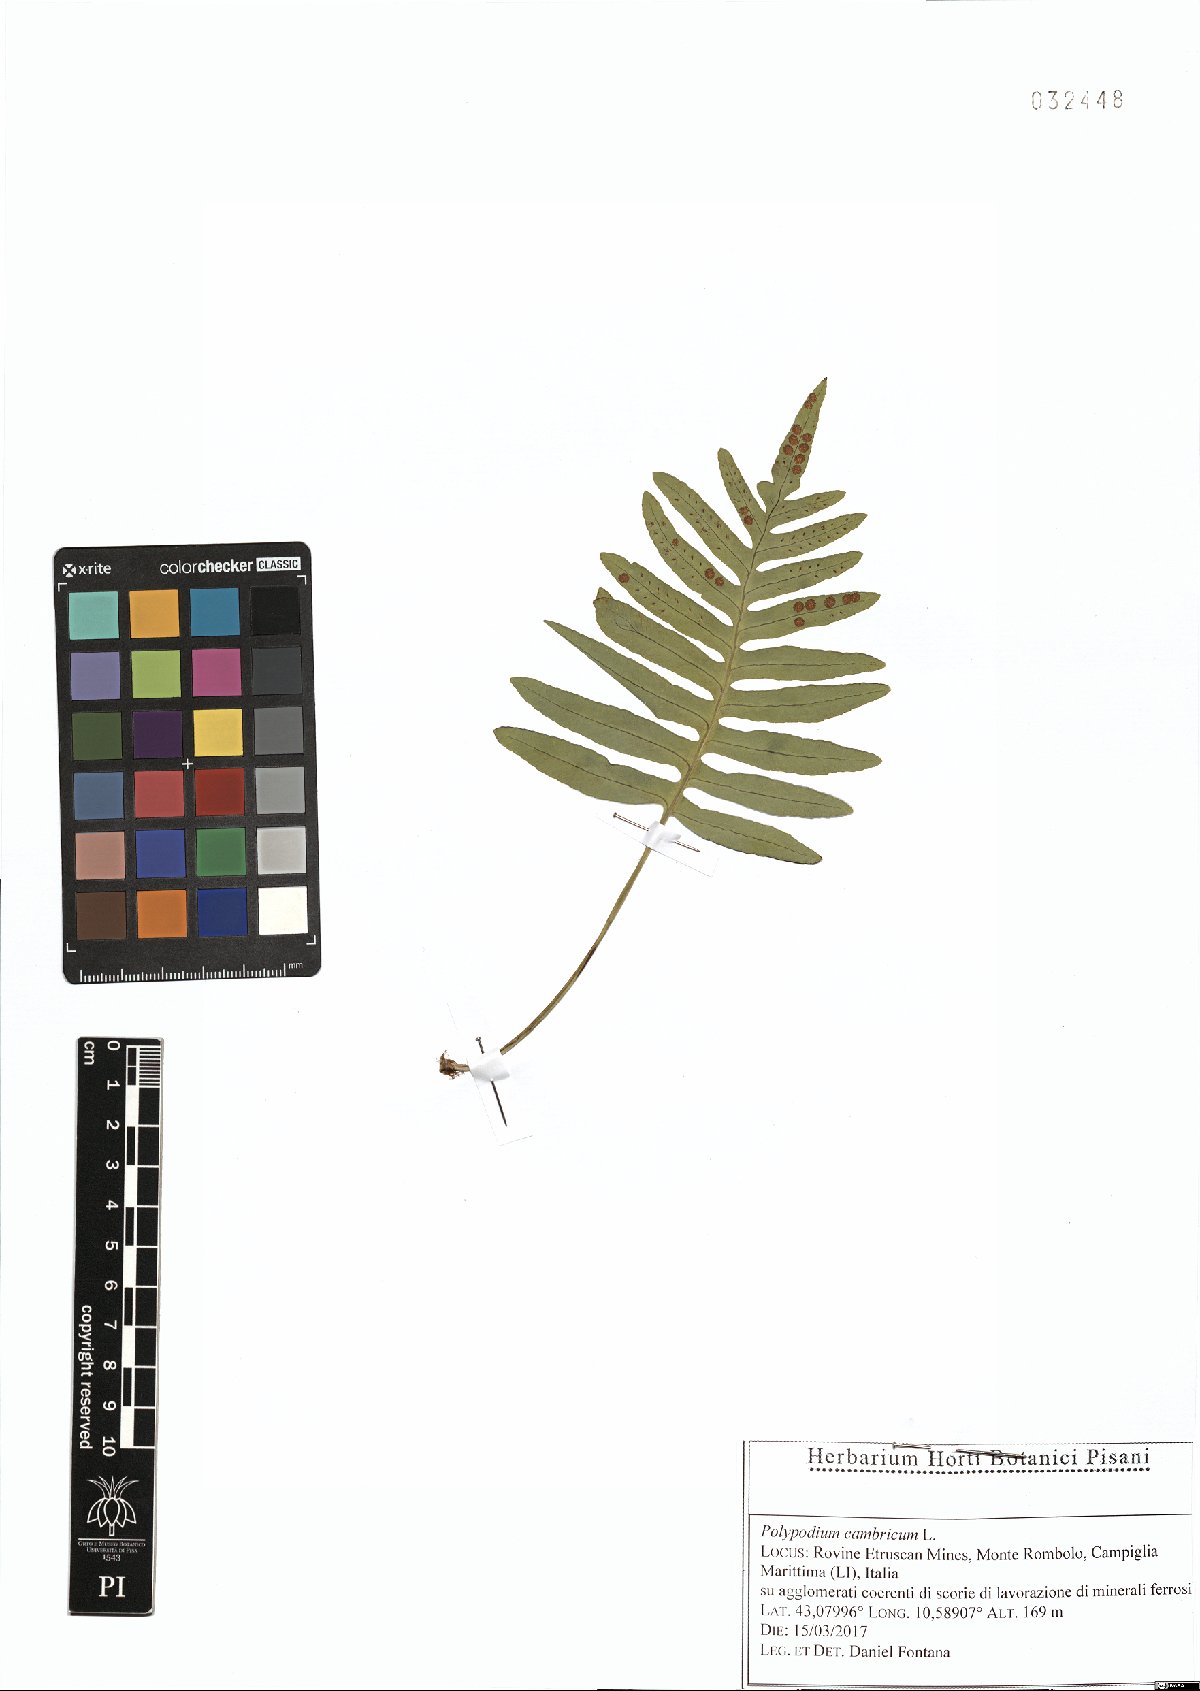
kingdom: Plantae
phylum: Tracheophyta
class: Polypodiopsida
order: Polypodiales
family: Polypodiaceae
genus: Polypodium
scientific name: Polypodium cambricum
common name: Southern polypody
